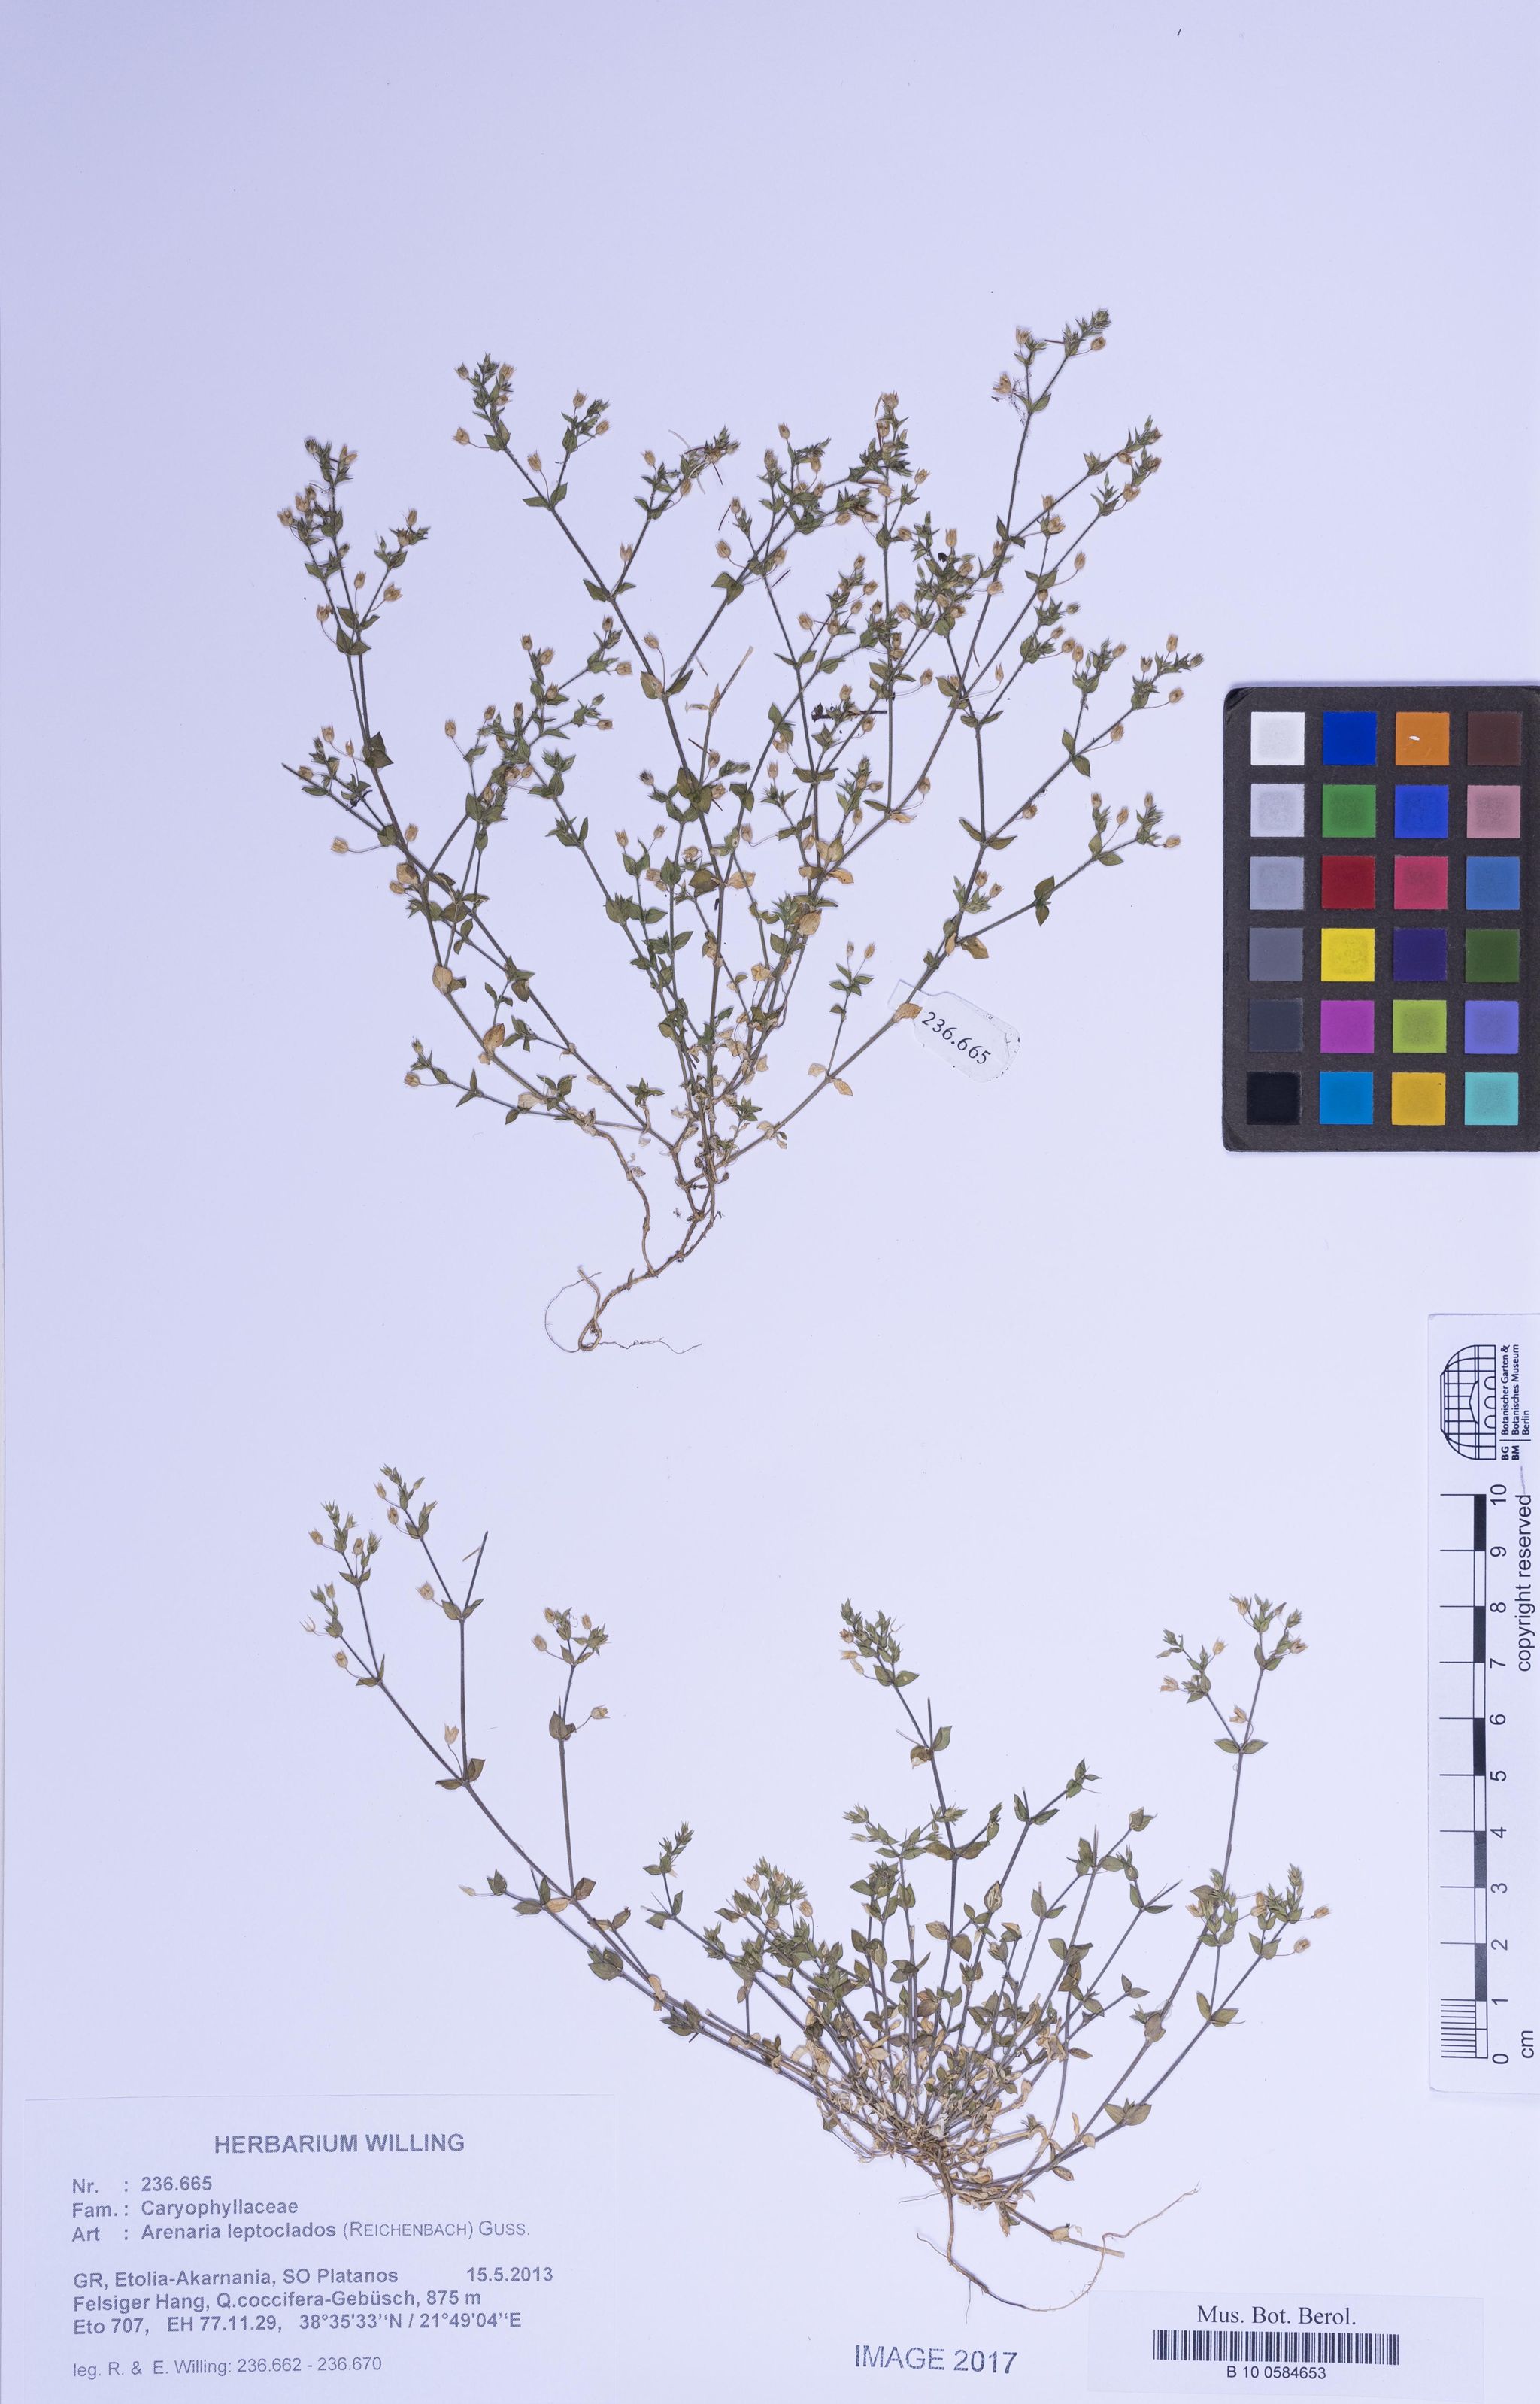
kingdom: Plantae
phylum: Tracheophyta
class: Magnoliopsida
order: Caryophyllales
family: Caryophyllaceae
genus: Arenaria
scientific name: Arenaria leptoclados
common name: Thyme-leaved sandwort
